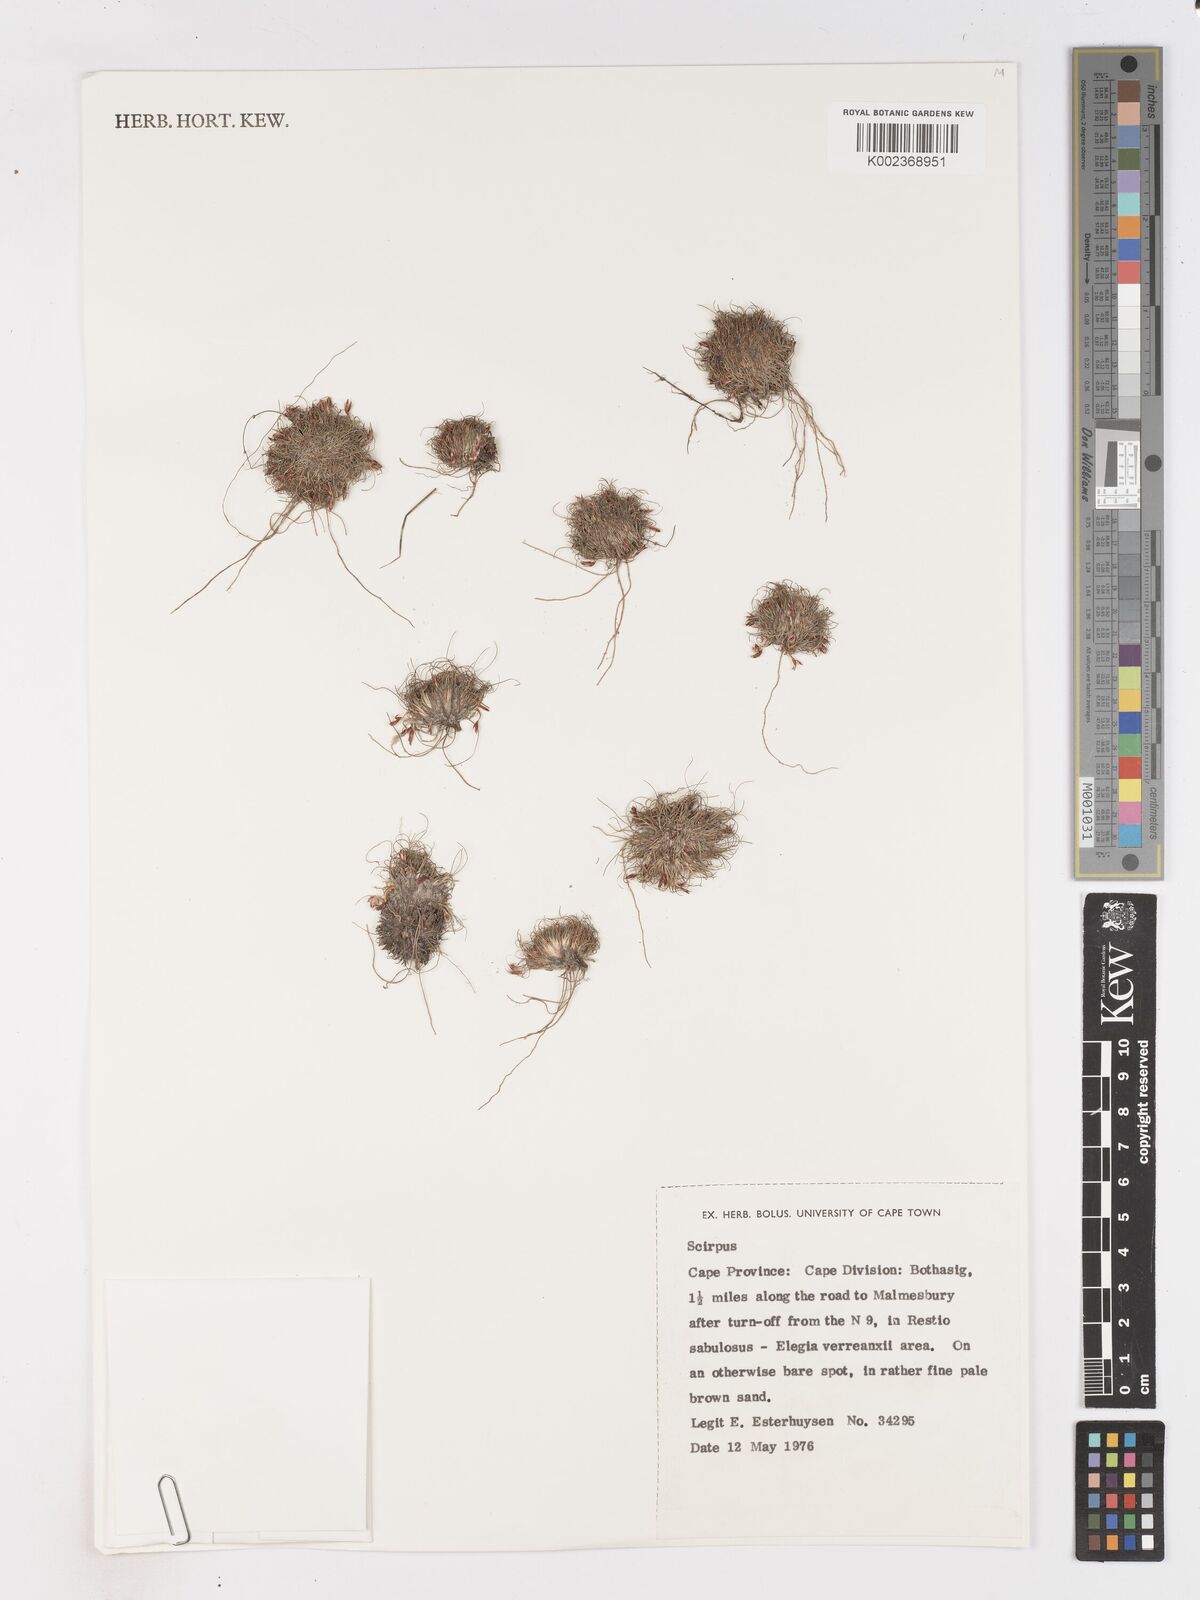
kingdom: Plantae
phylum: Tracheophyta
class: Liliopsida
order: Poales
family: Cyperaceae
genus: Isolepis
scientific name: Isolepis rubicunda
